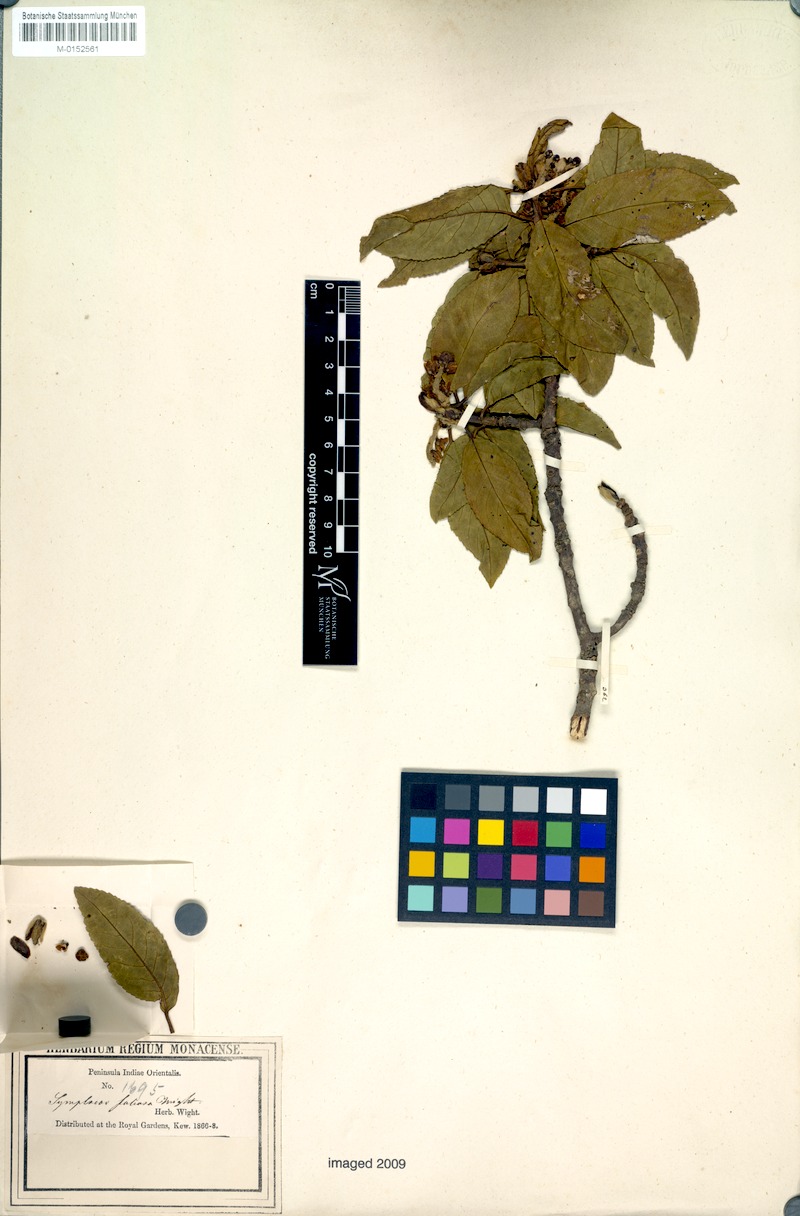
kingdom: Plantae
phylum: Tracheophyta
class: Magnoliopsida
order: Ericales
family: Symplocaceae
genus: Symplocos
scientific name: Symplocos foliosa
